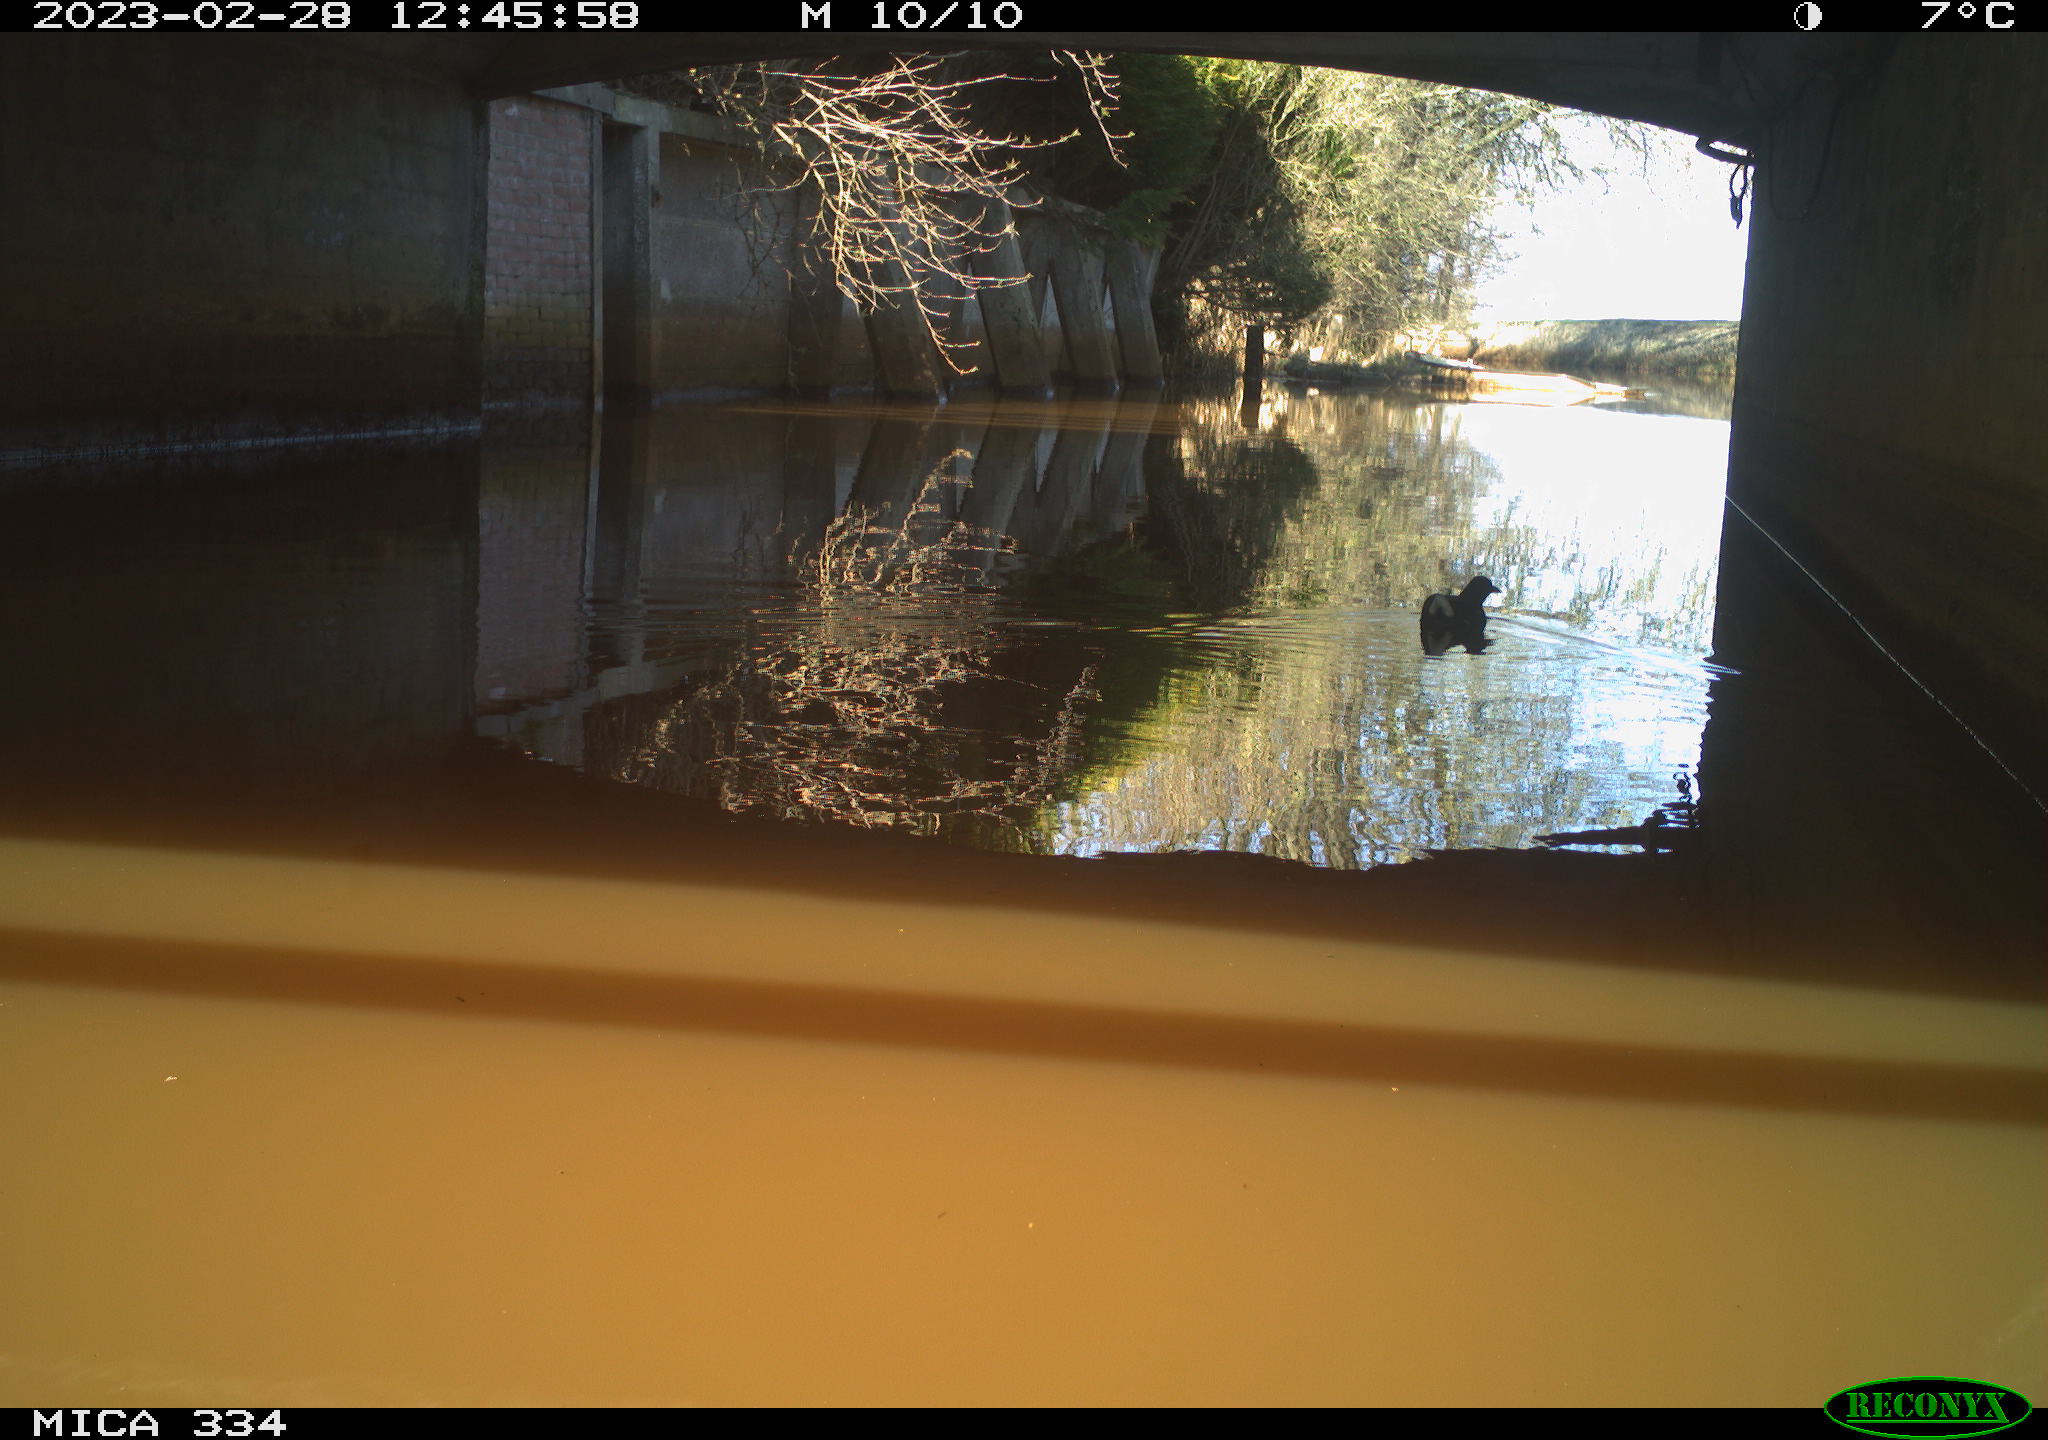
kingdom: Animalia
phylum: Chordata
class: Aves
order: Gruiformes
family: Rallidae
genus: Gallinula
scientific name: Gallinula chloropus
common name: Common moorhen
